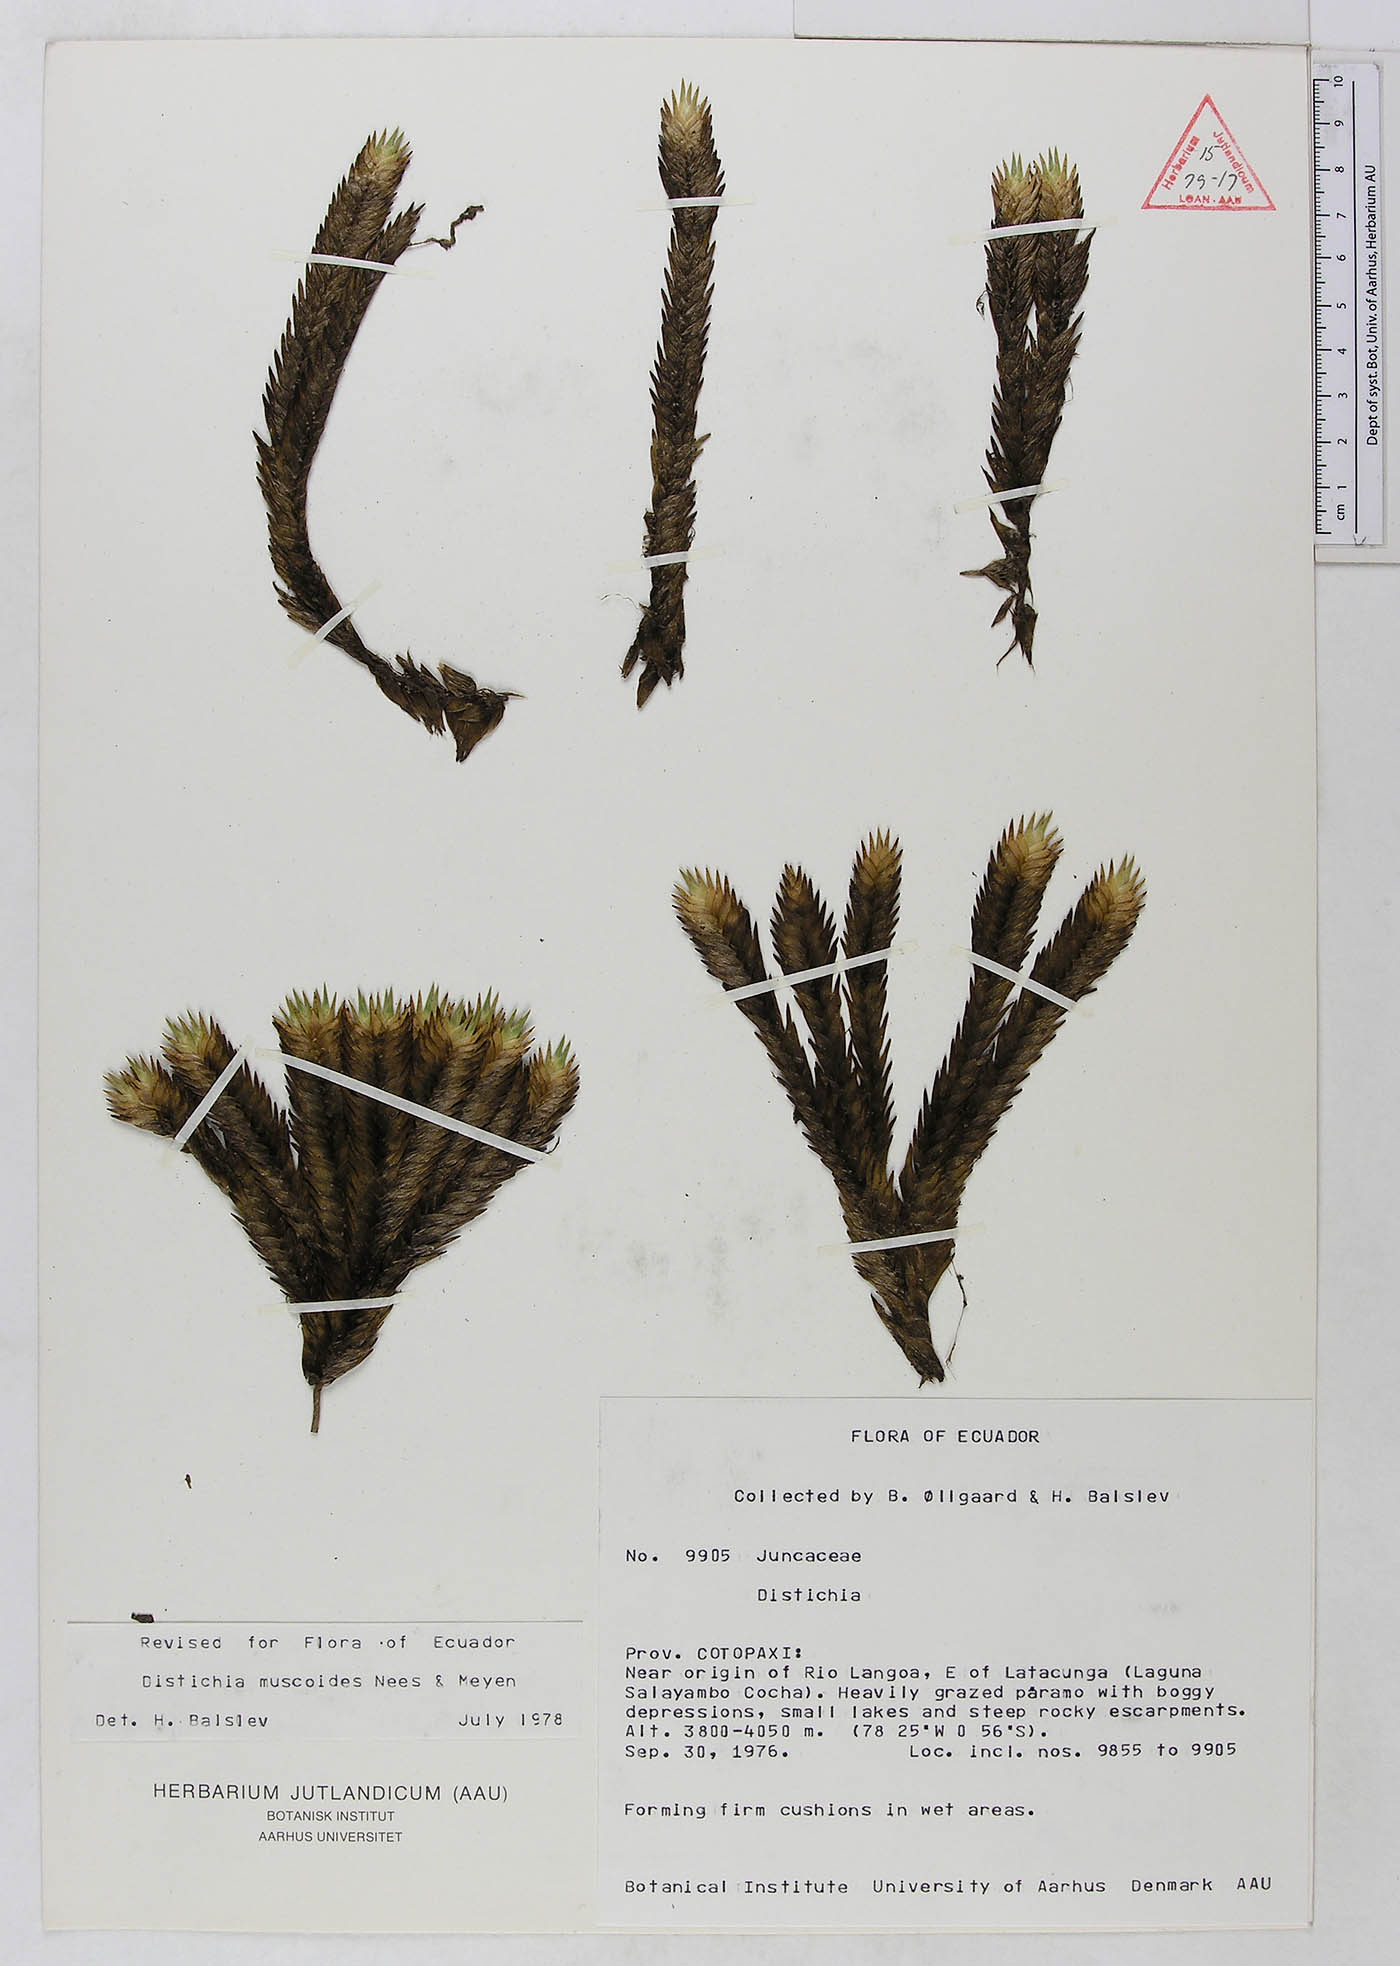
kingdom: Plantae
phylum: Tracheophyta
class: Liliopsida
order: Poales
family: Juncaceae
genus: Distichia
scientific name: Distichia muscoides
